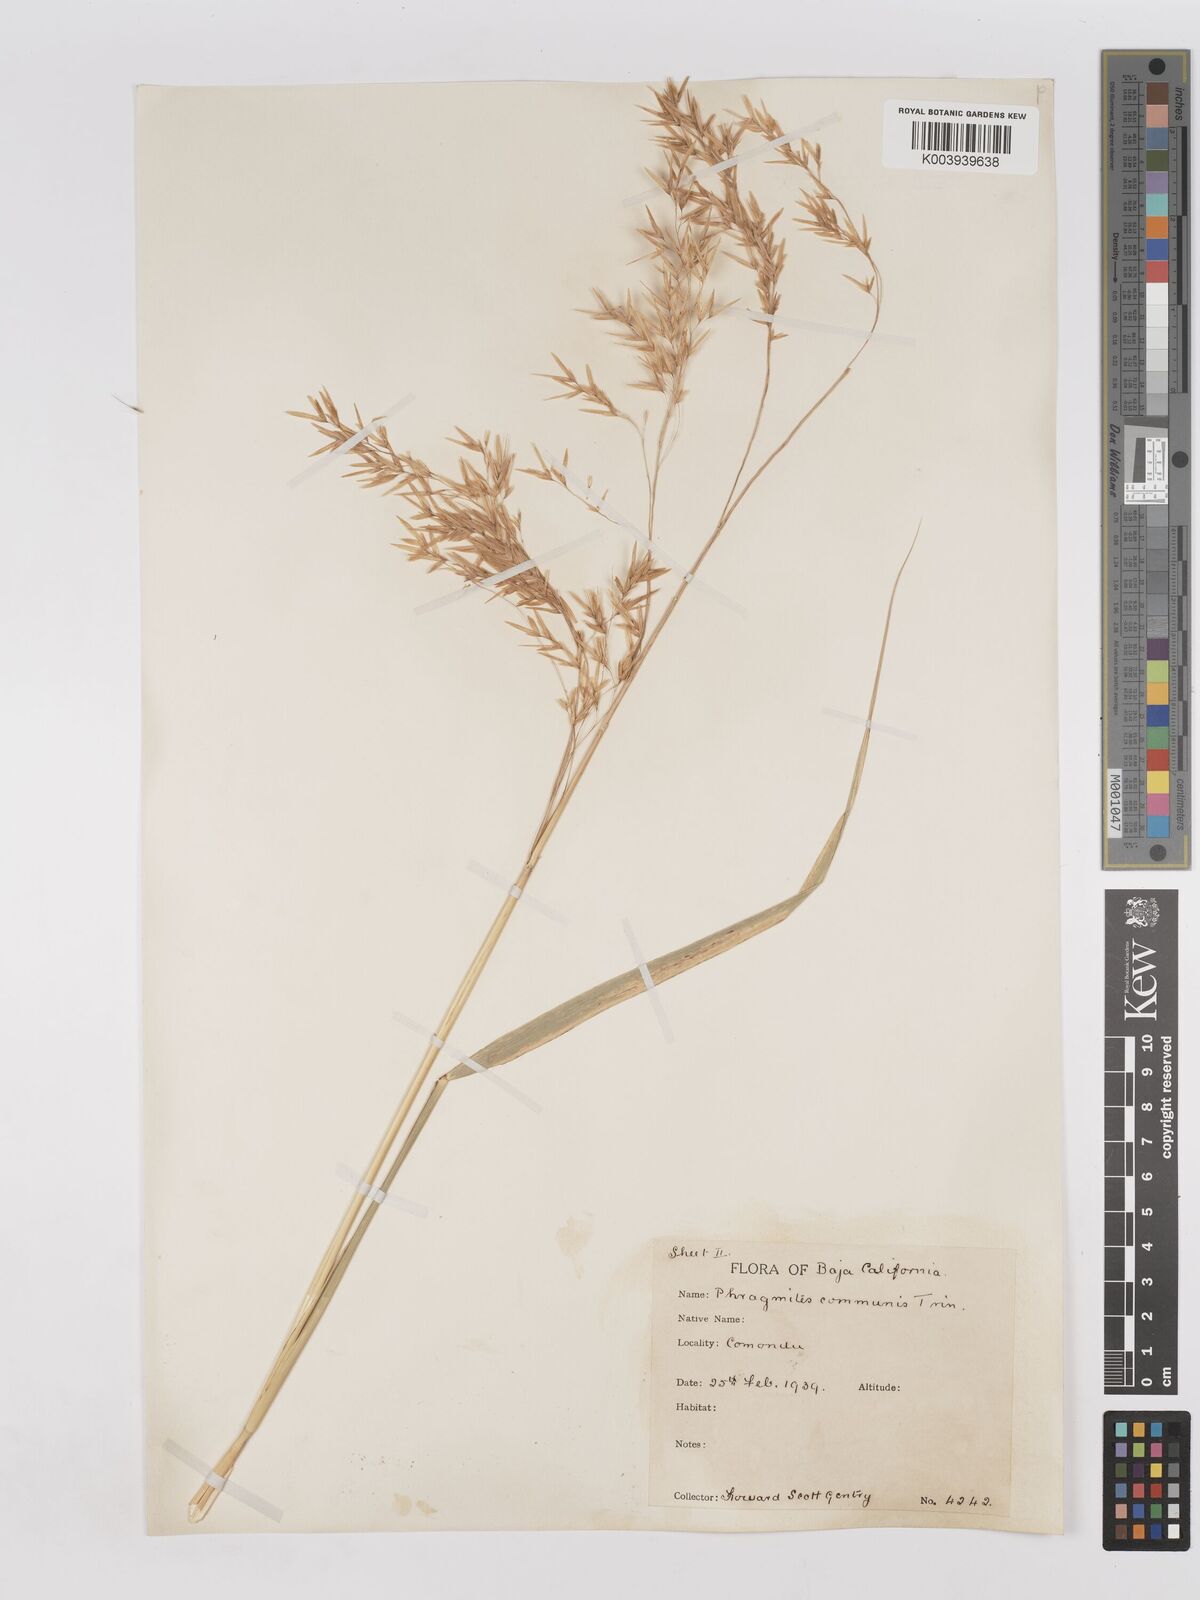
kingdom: Plantae
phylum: Tracheophyta
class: Liliopsida
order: Poales
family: Poaceae
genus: Phragmites
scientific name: Phragmites australis
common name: Common reed
